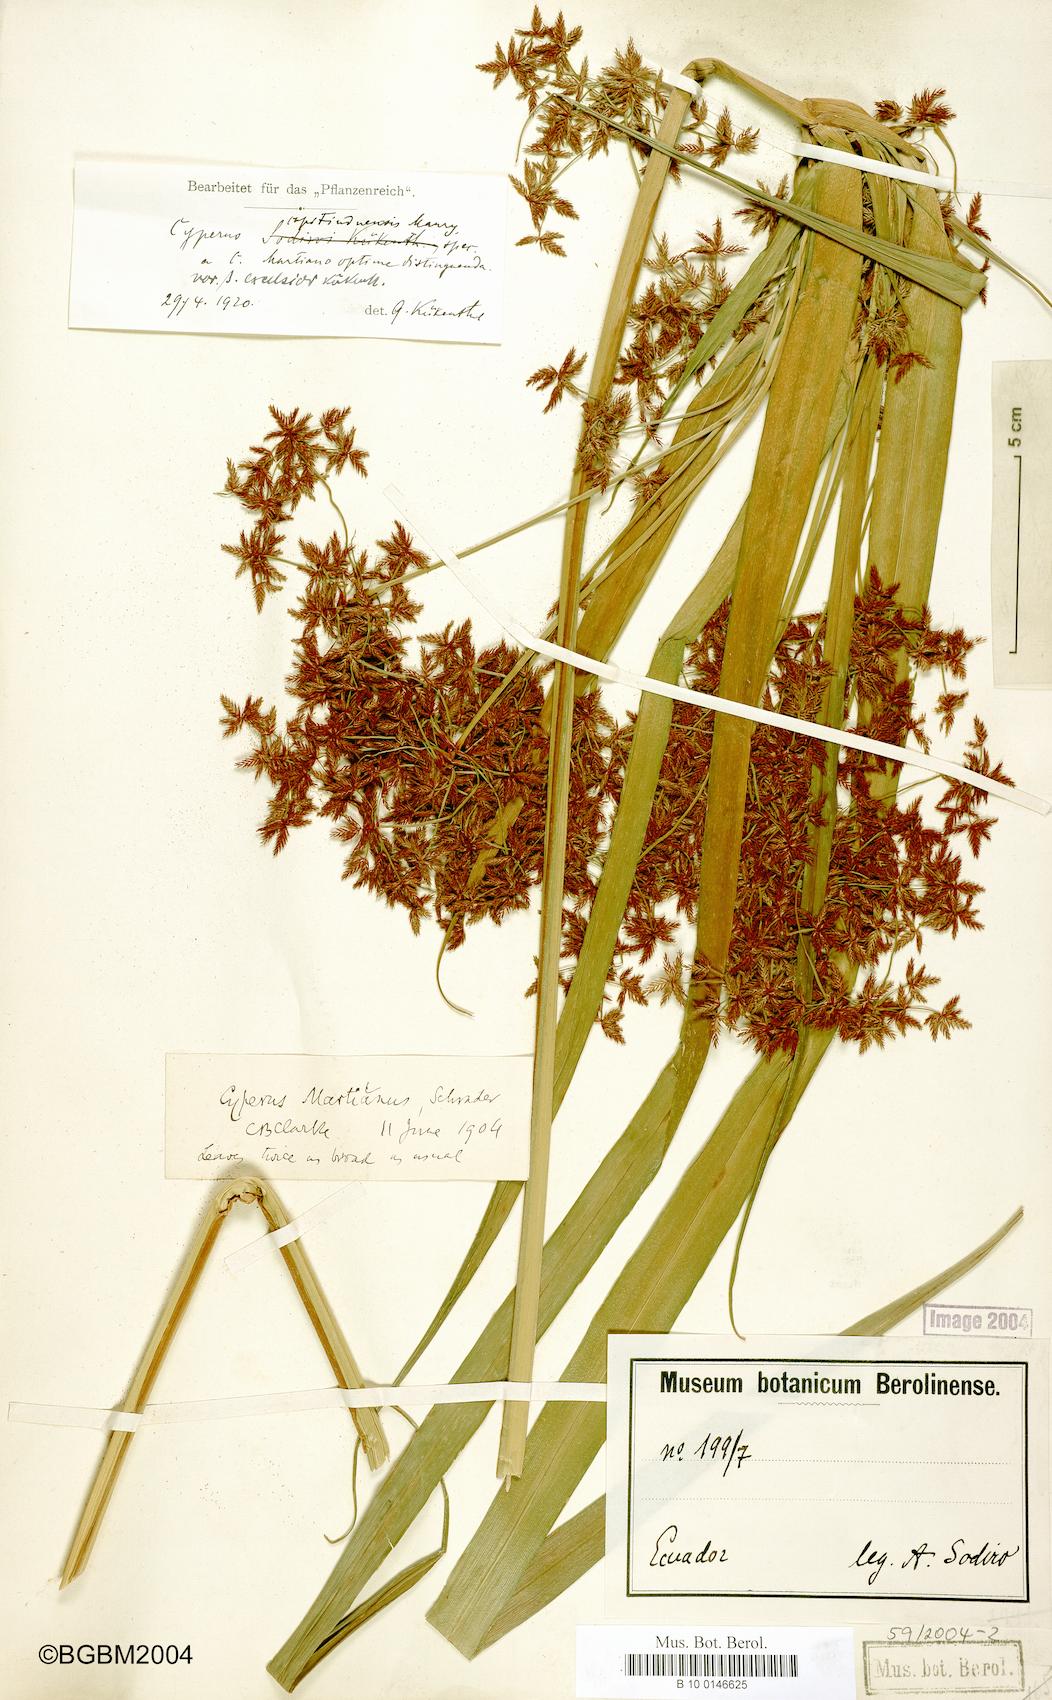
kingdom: Plantae
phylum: Tracheophyta
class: Liliopsida
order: Poales
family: Cyperaceae
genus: Cyperus
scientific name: Cyperus tabina
